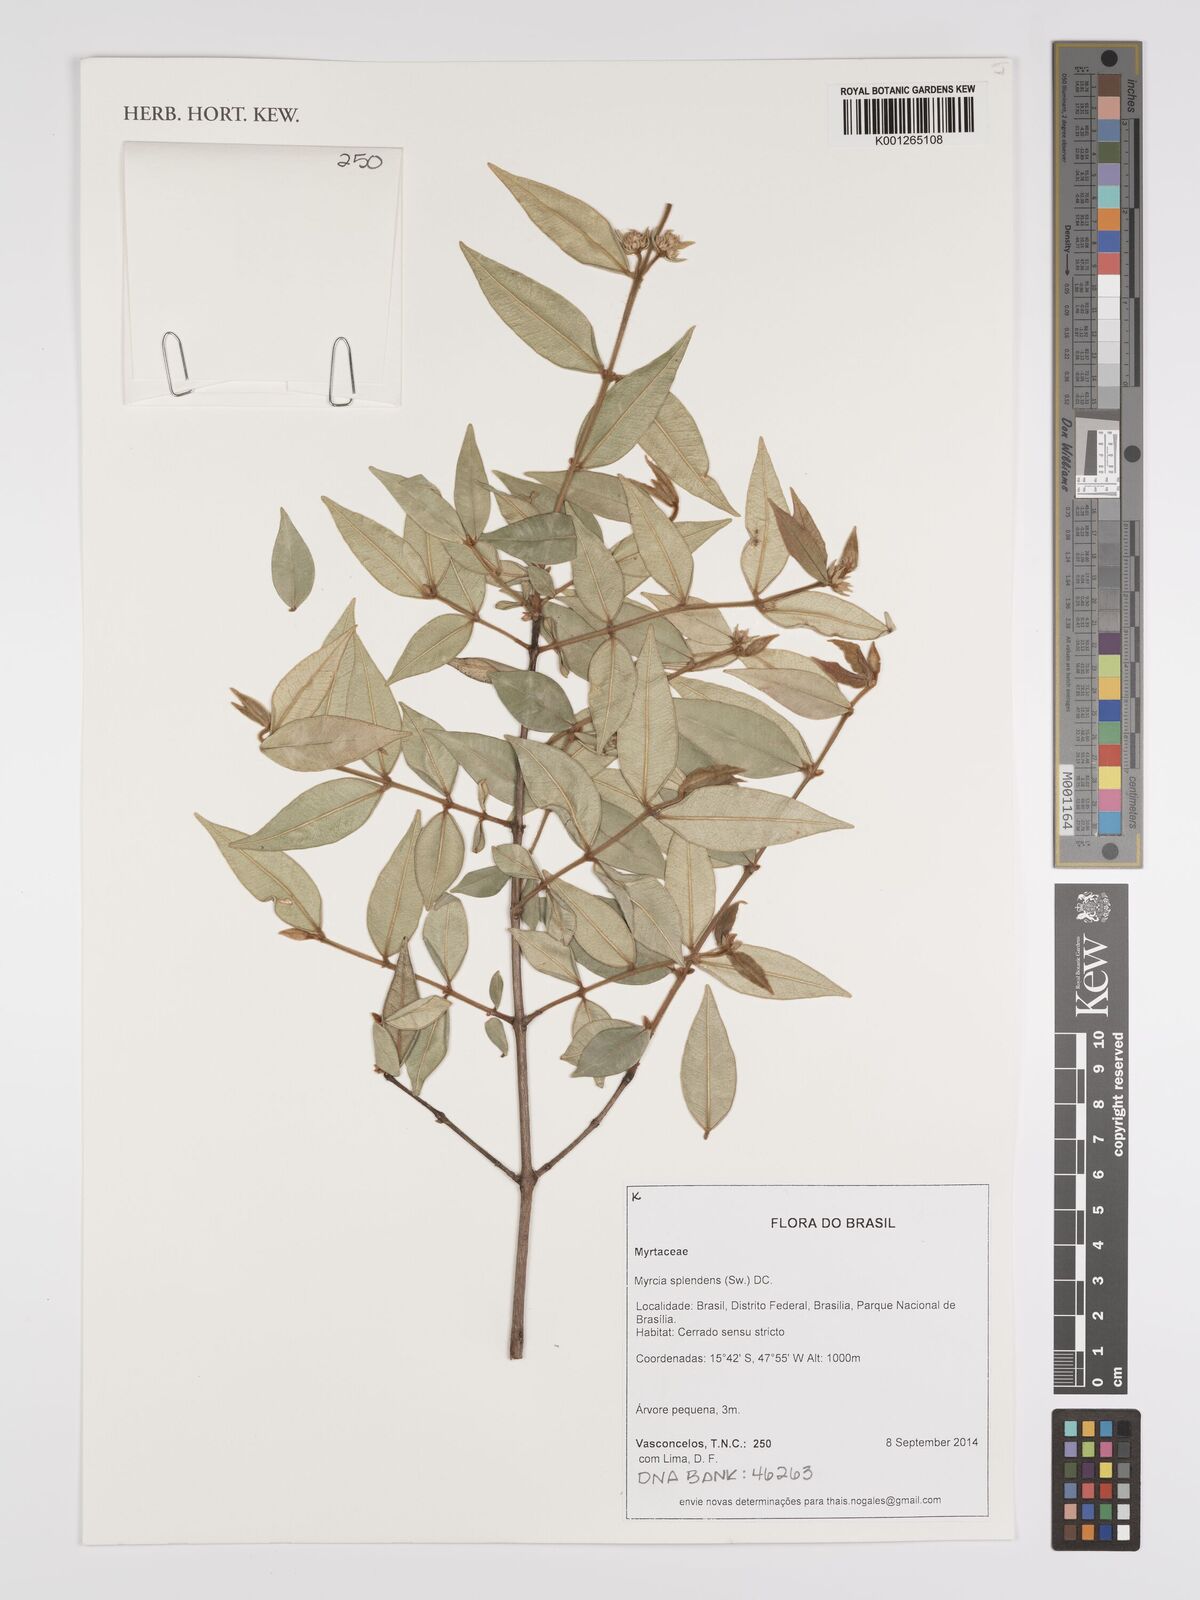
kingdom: Plantae
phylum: Tracheophyta
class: Magnoliopsida
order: Myrtales
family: Myrtaceae
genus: Myrcia
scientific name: Myrcia splendens
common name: Surinam cherry
